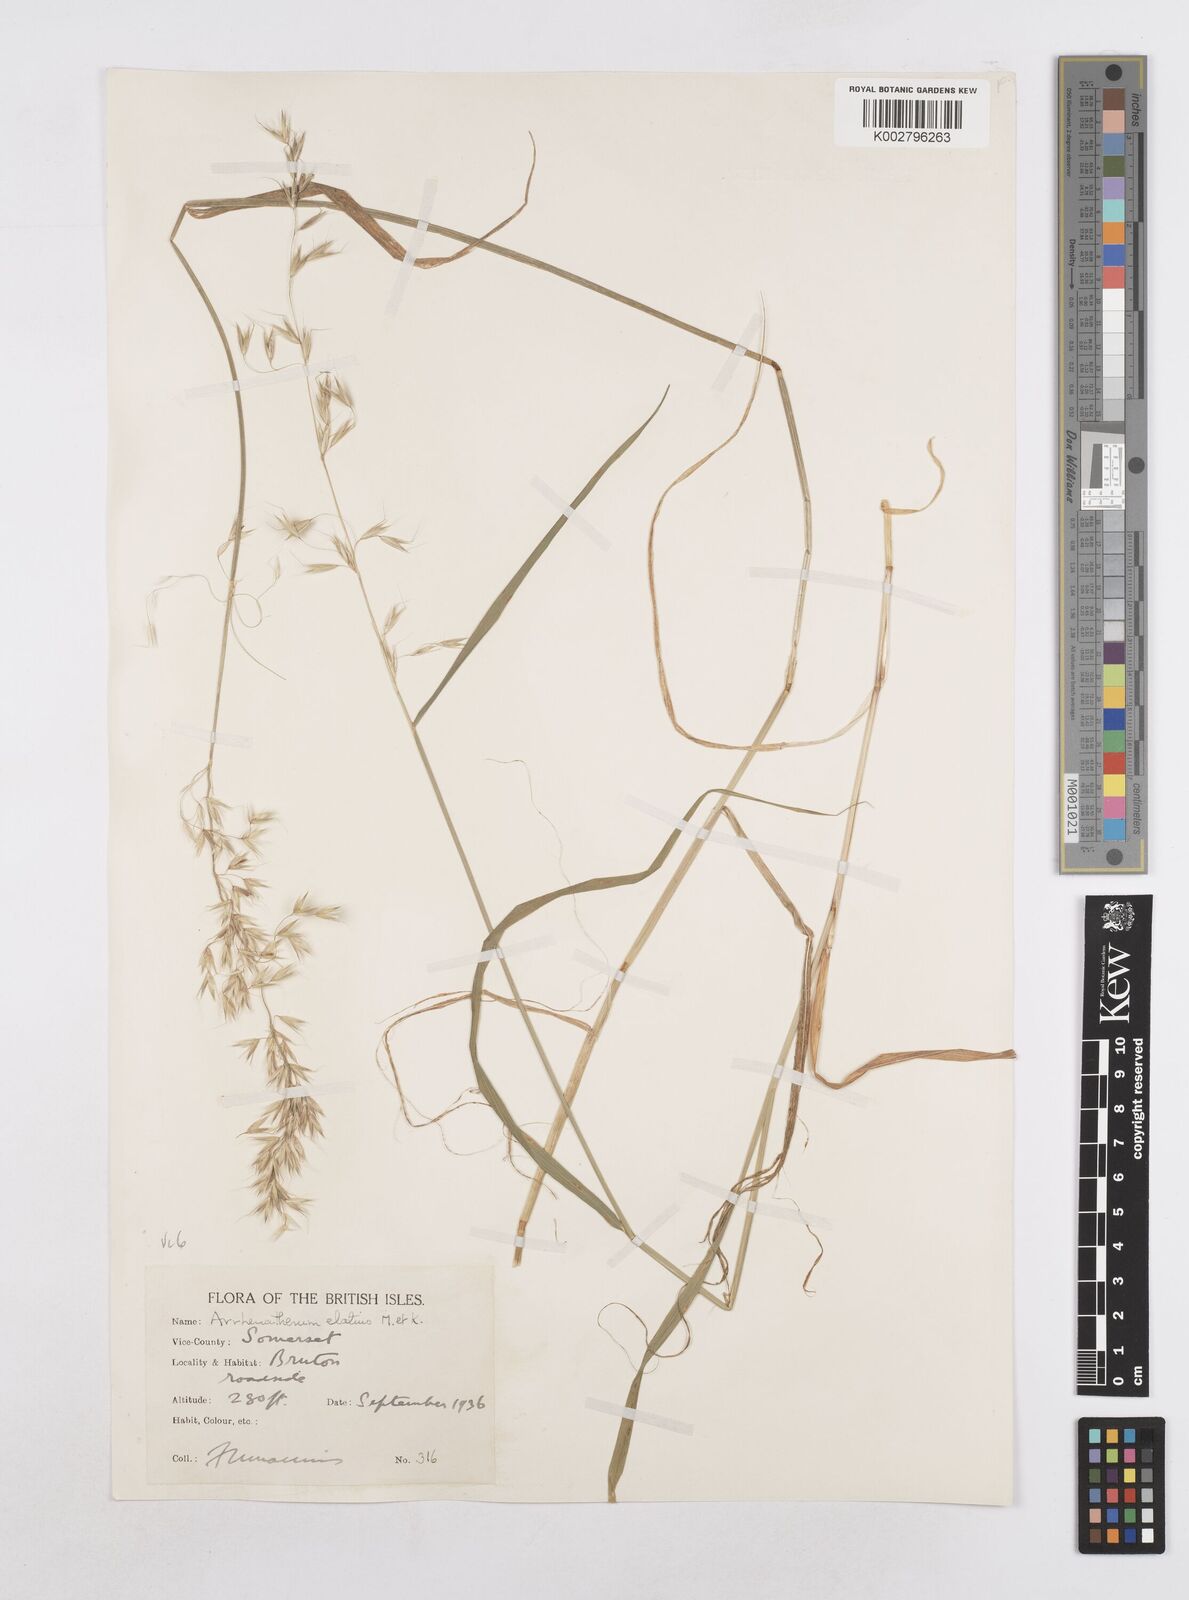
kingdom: Plantae
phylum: Tracheophyta
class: Liliopsida
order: Poales
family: Poaceae
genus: Arrhenatherum
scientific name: Arrhenatherum elatius
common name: Tall oatgrass
